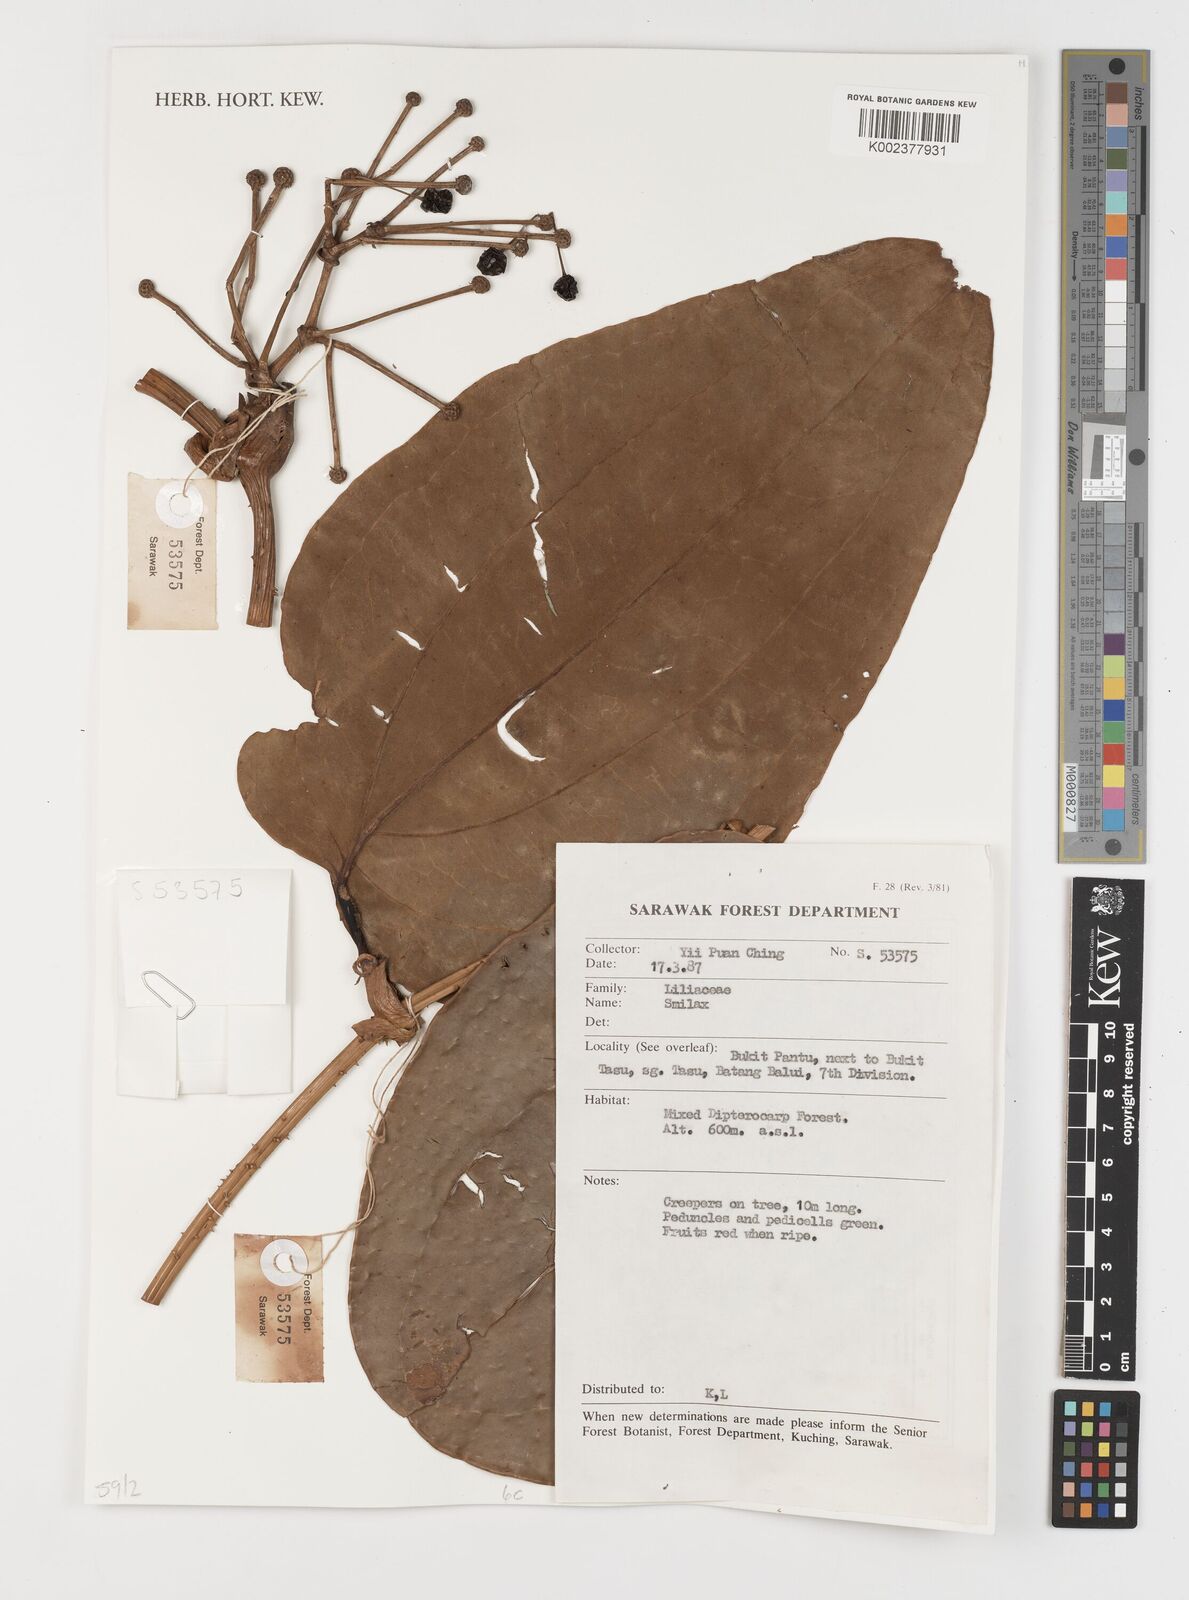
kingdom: Plantae
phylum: Tracheophyta
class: Liliopsida
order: Liliales
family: Smilacaceae
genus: Smilax
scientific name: Smilax
